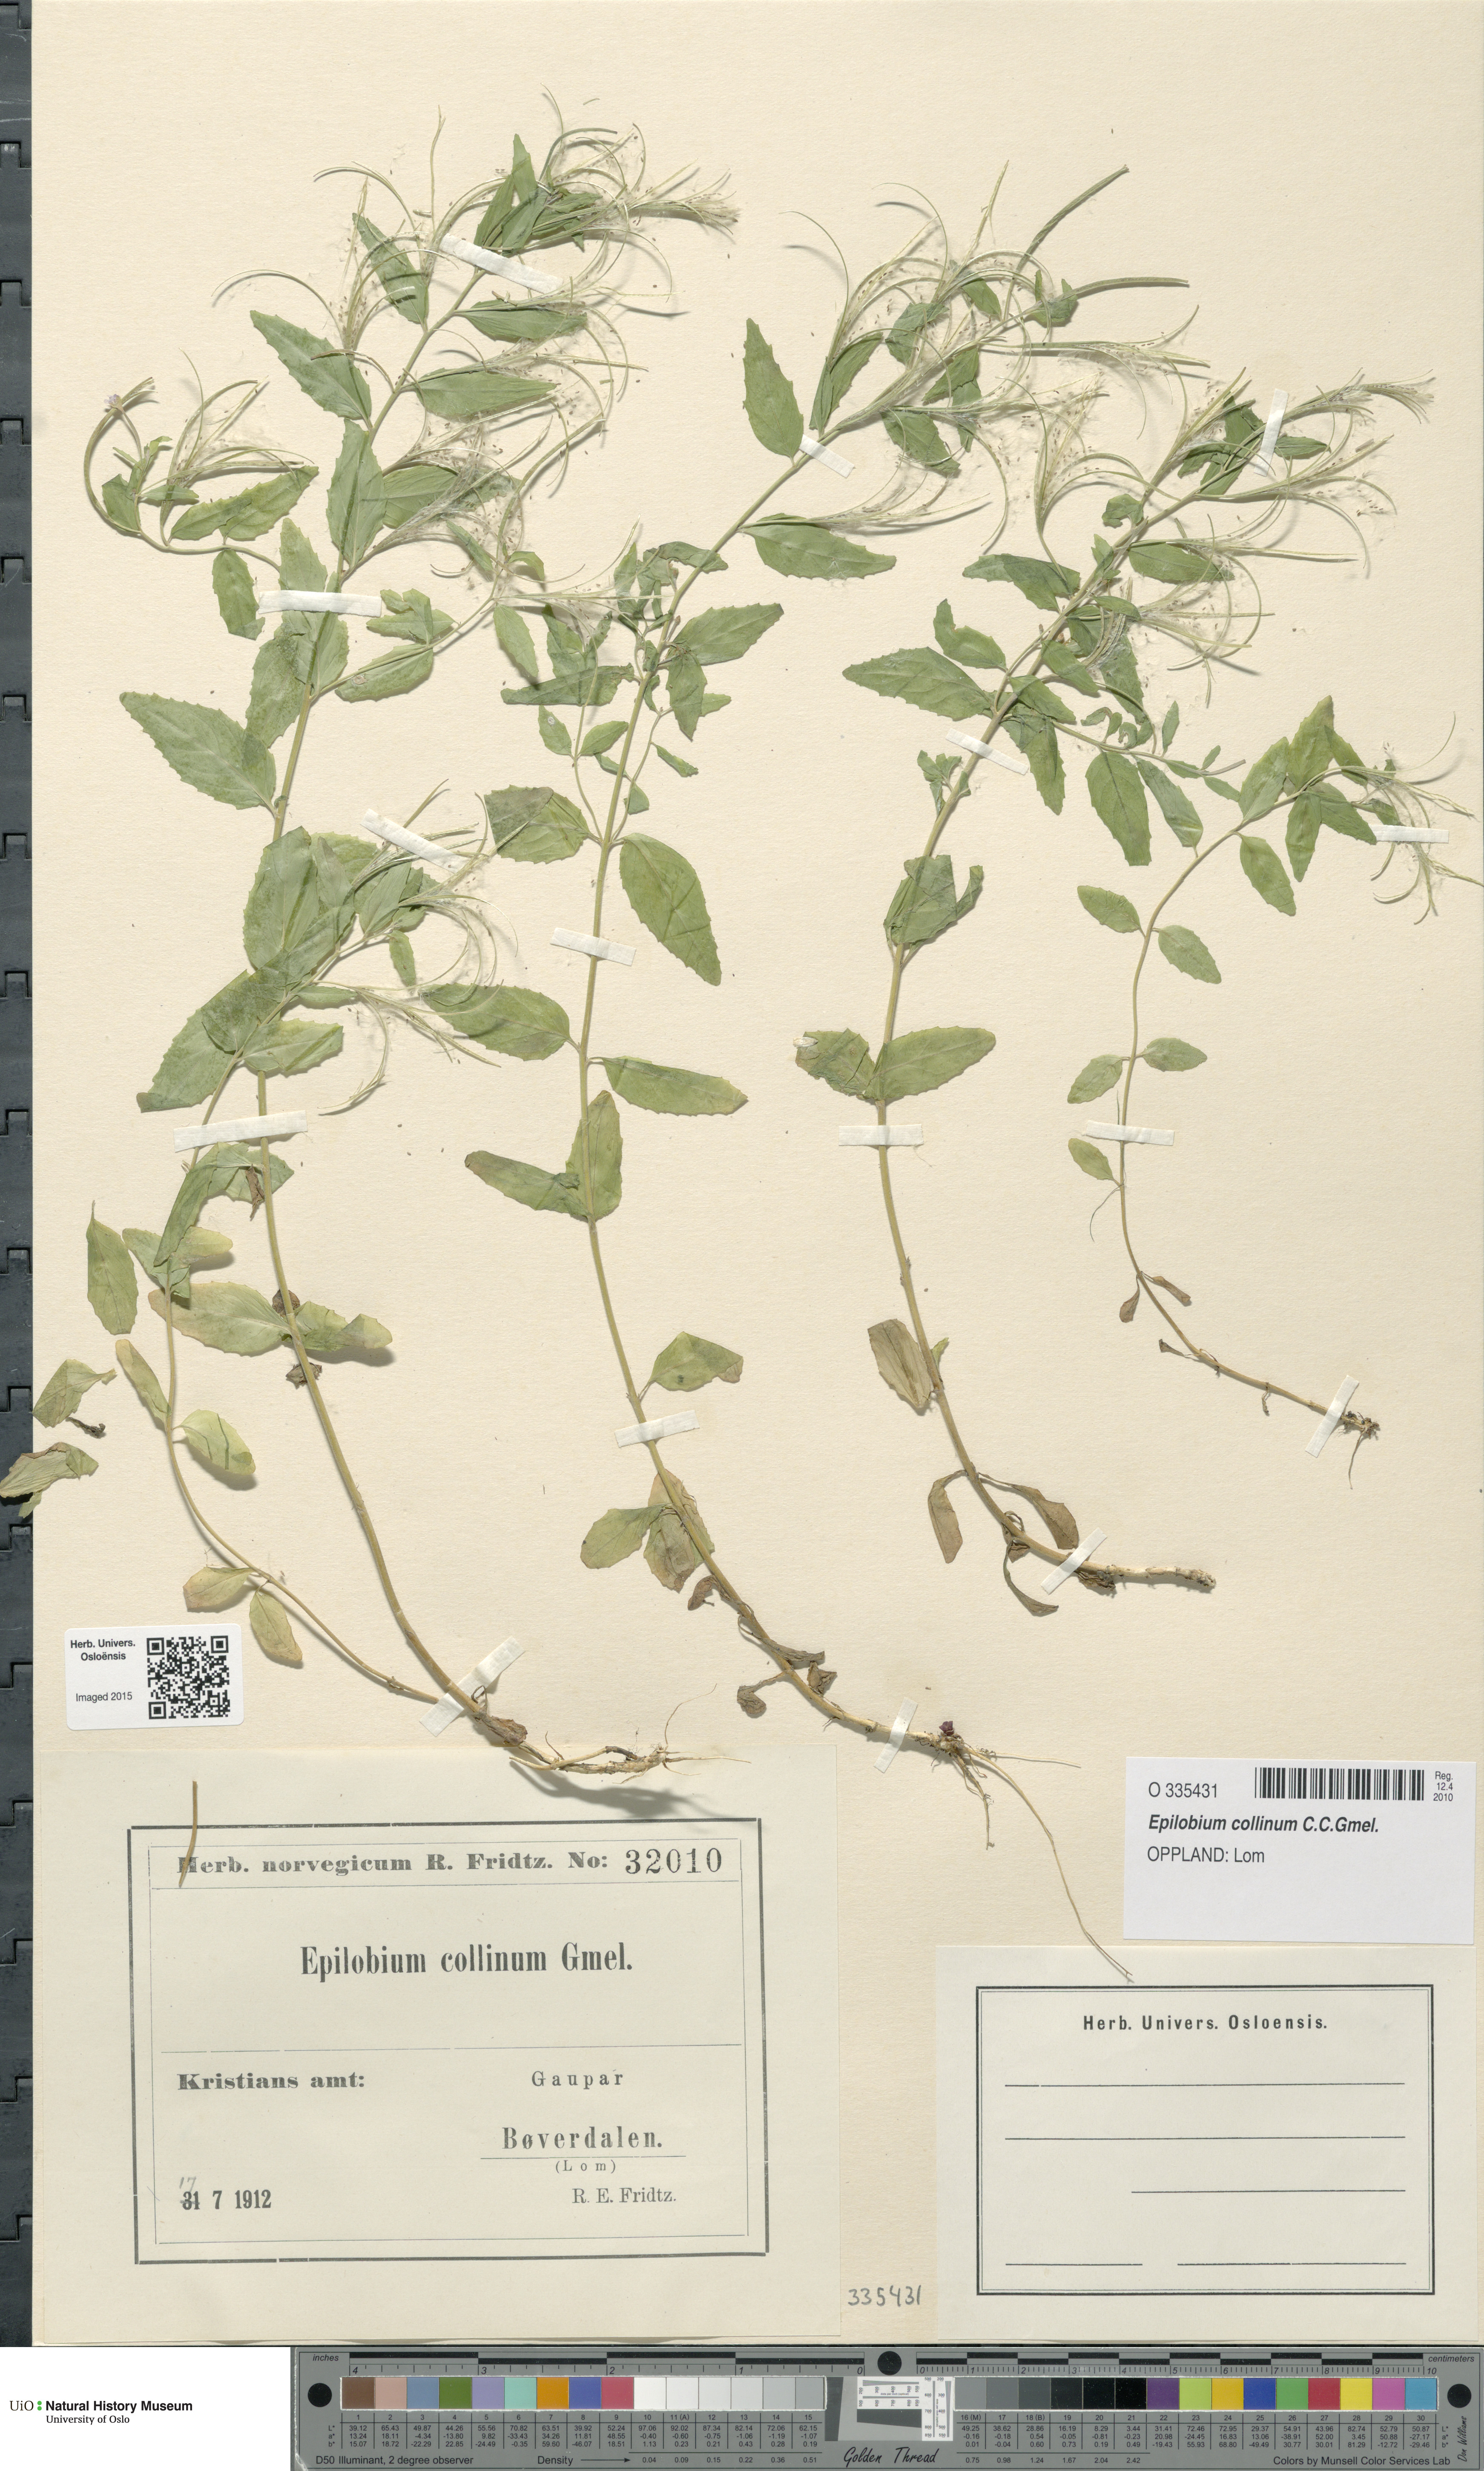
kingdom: Plantae
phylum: Tracheophyta
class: Magnoliopsida
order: Myrtales
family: Onagraceae
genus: Epilobium
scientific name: Epilobium collinum
